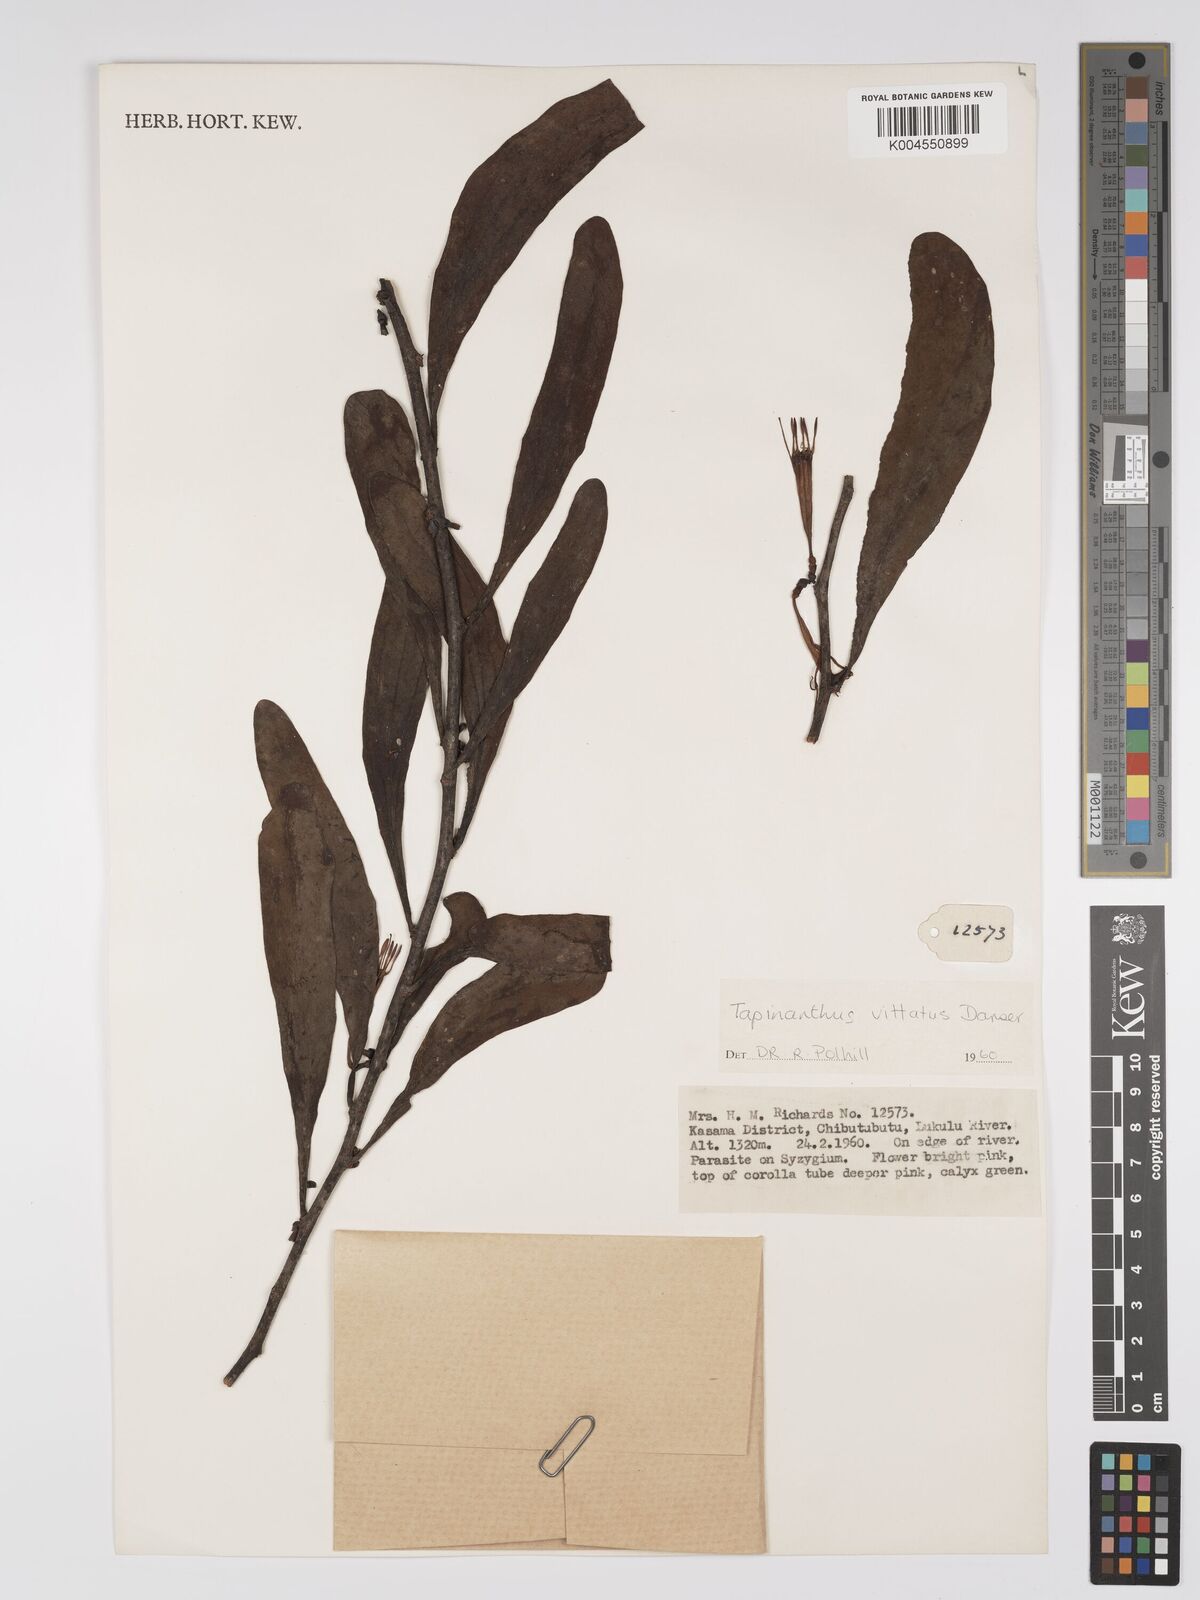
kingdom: Plantae
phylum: Tracheophyta
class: Magnoliopsida
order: Santalales
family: Loranthaceae
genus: Agelanthus
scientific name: Agelanthus zizyphifolius
